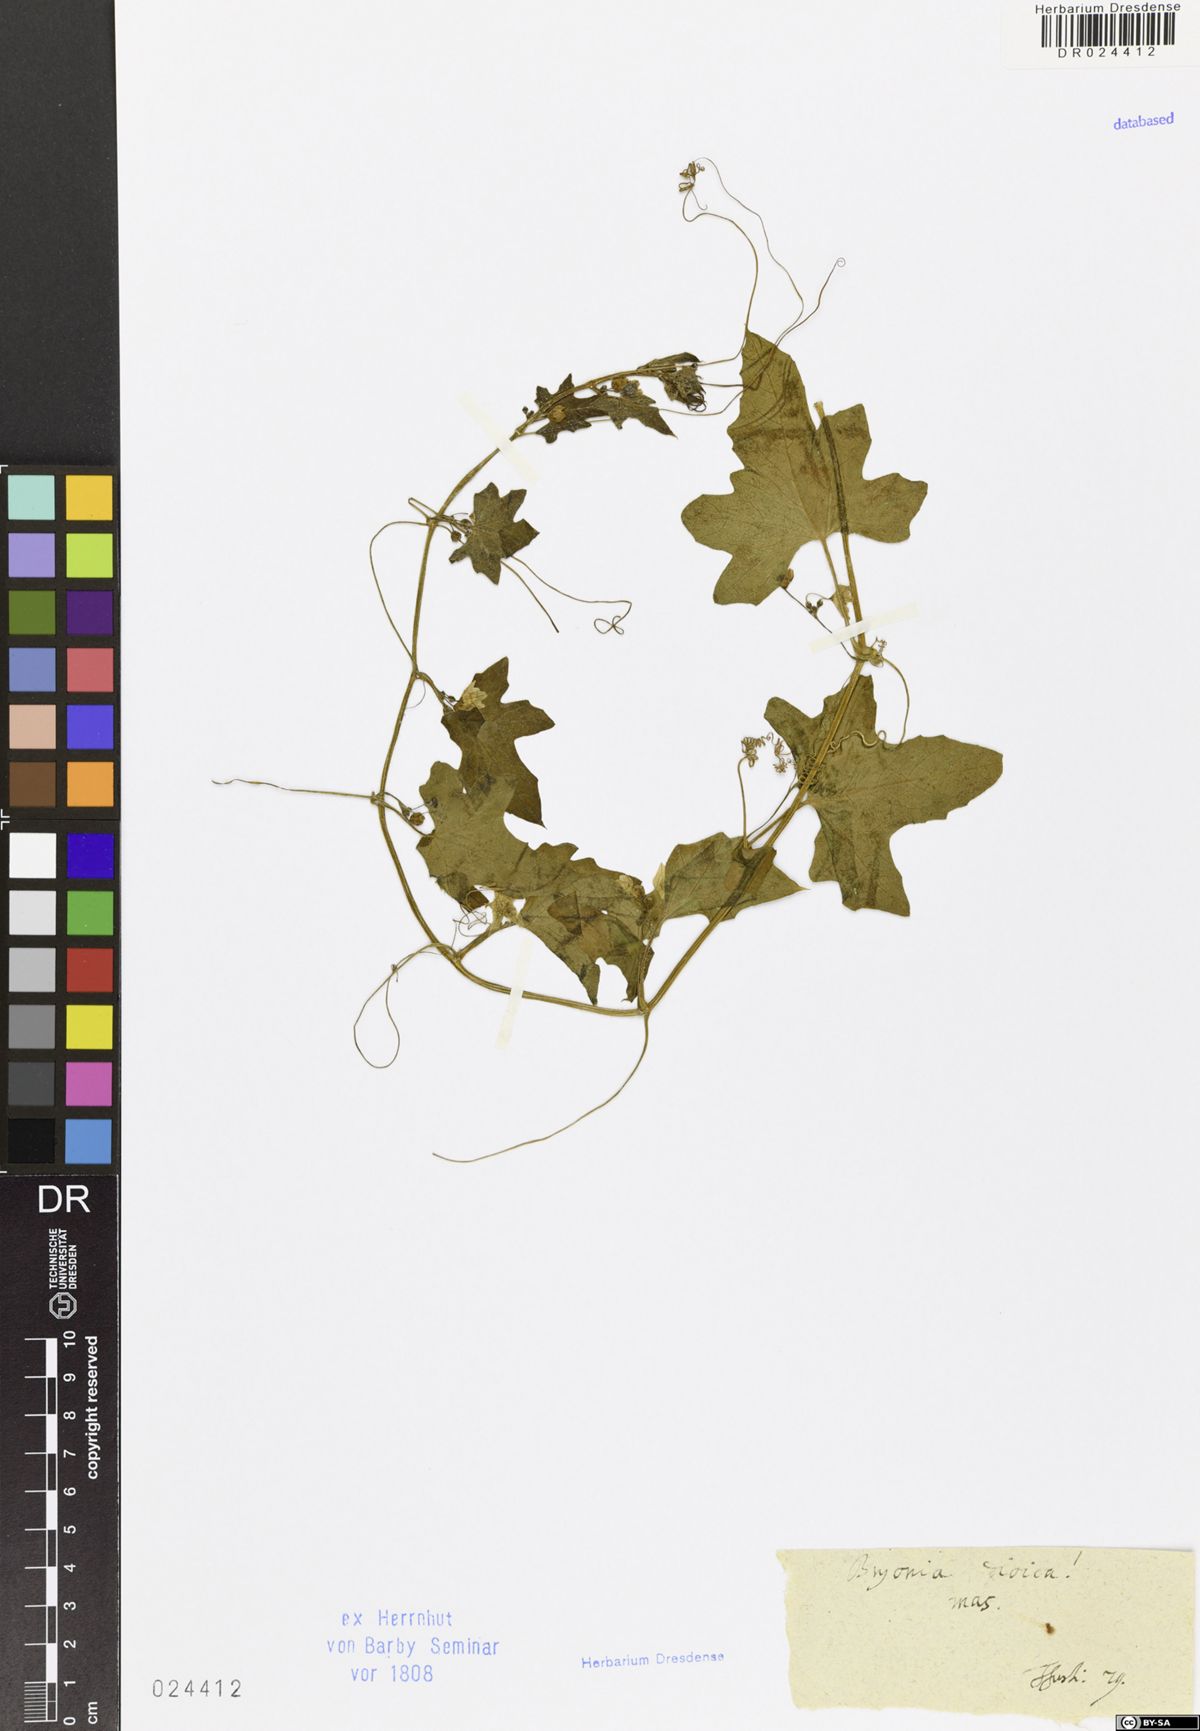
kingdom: Plantae
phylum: Tracheophyta
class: Magnoliopsida
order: Cucurbitales
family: Cucurbitaceae
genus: Bryonia
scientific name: Bryonia dioica
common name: White bryony
